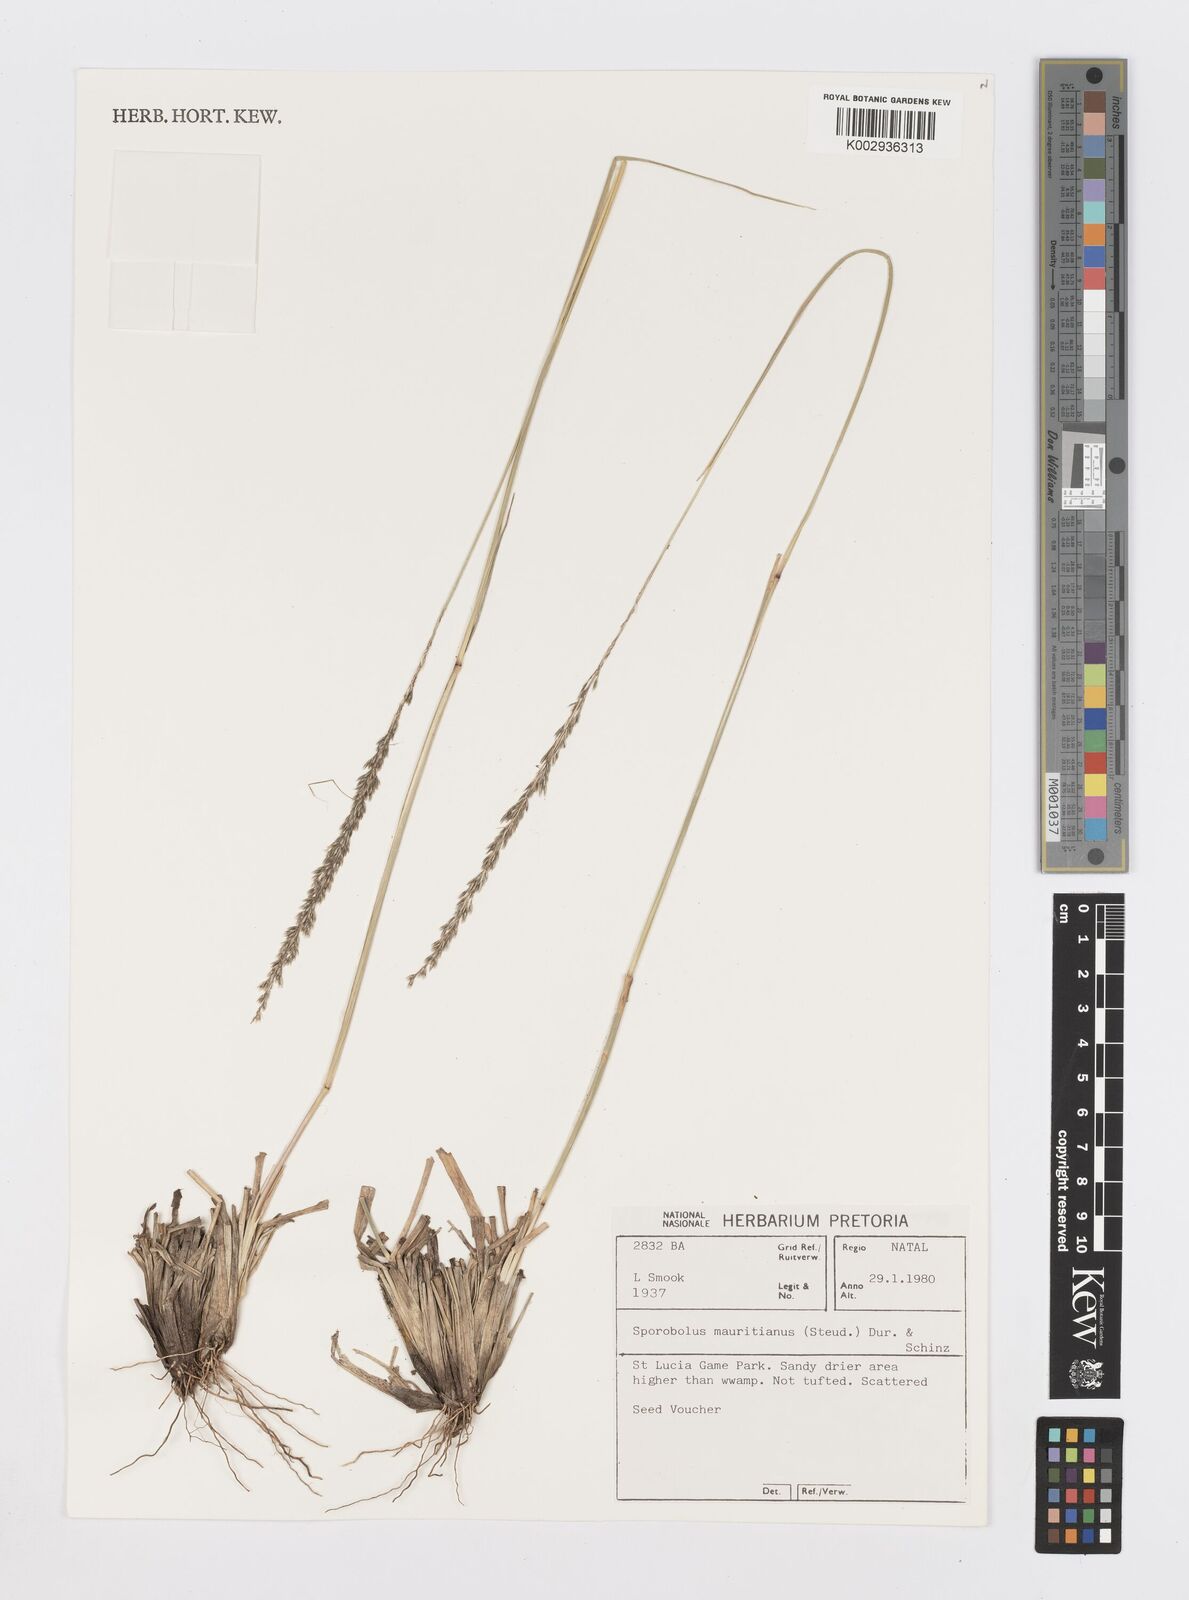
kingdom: Plantae
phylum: Tracheophyta
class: Liliopsida
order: Poales
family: Poaceae
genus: Sporobolus
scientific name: Sporobolus subulatus
